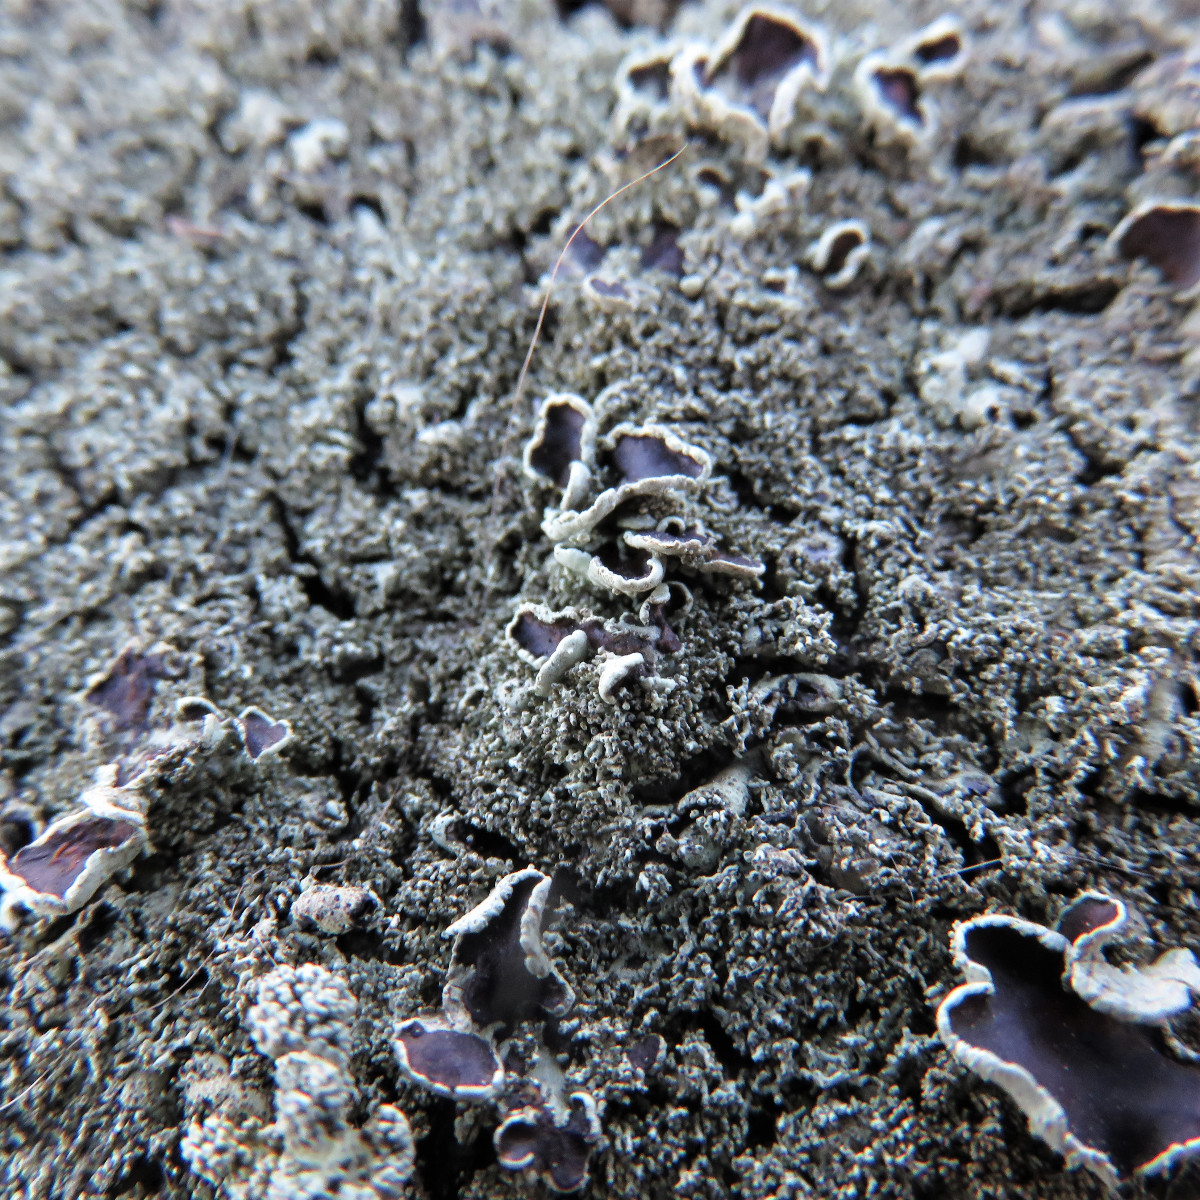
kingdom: Fungi
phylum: Ascomycota
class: Lecanoromycetes
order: Lecanorales
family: Parmeliaceae
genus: Xanthoparmelia
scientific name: Xanthoparmelia conspersa
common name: messing-skållav
